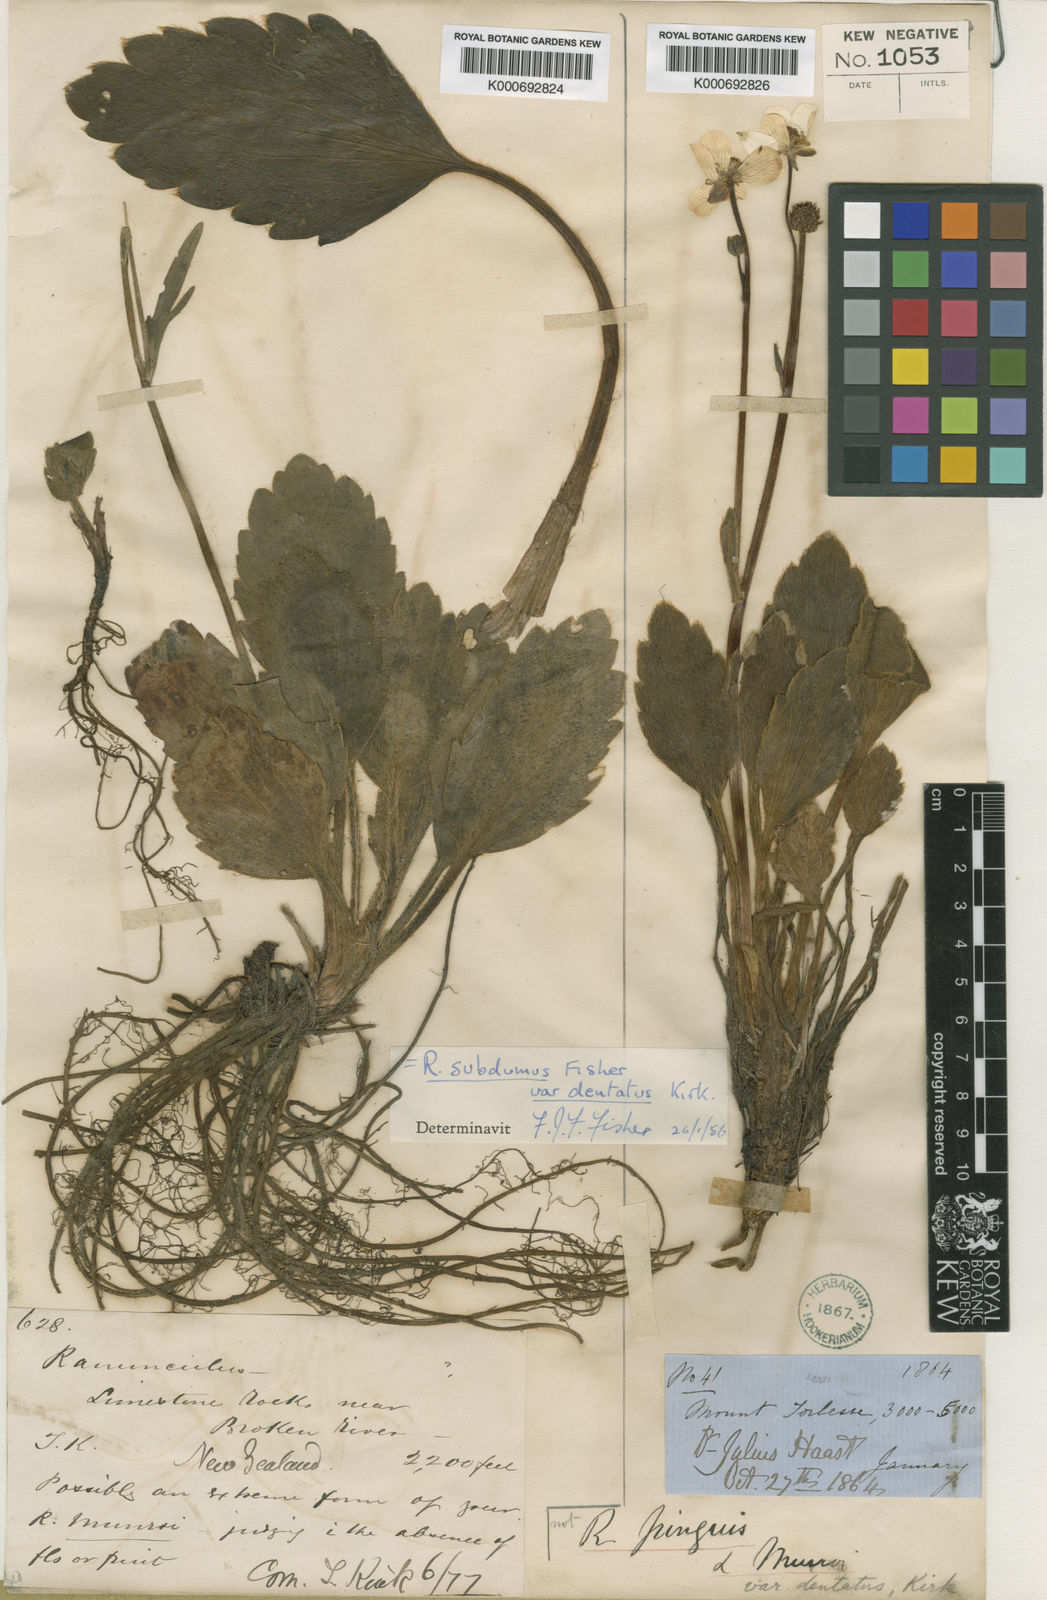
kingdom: Plantae
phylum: Tracheophyta
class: Magnoliopsida
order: Ranunculales
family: Ranunculaceae
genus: Ranunculus
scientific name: Ranunculus insignis
